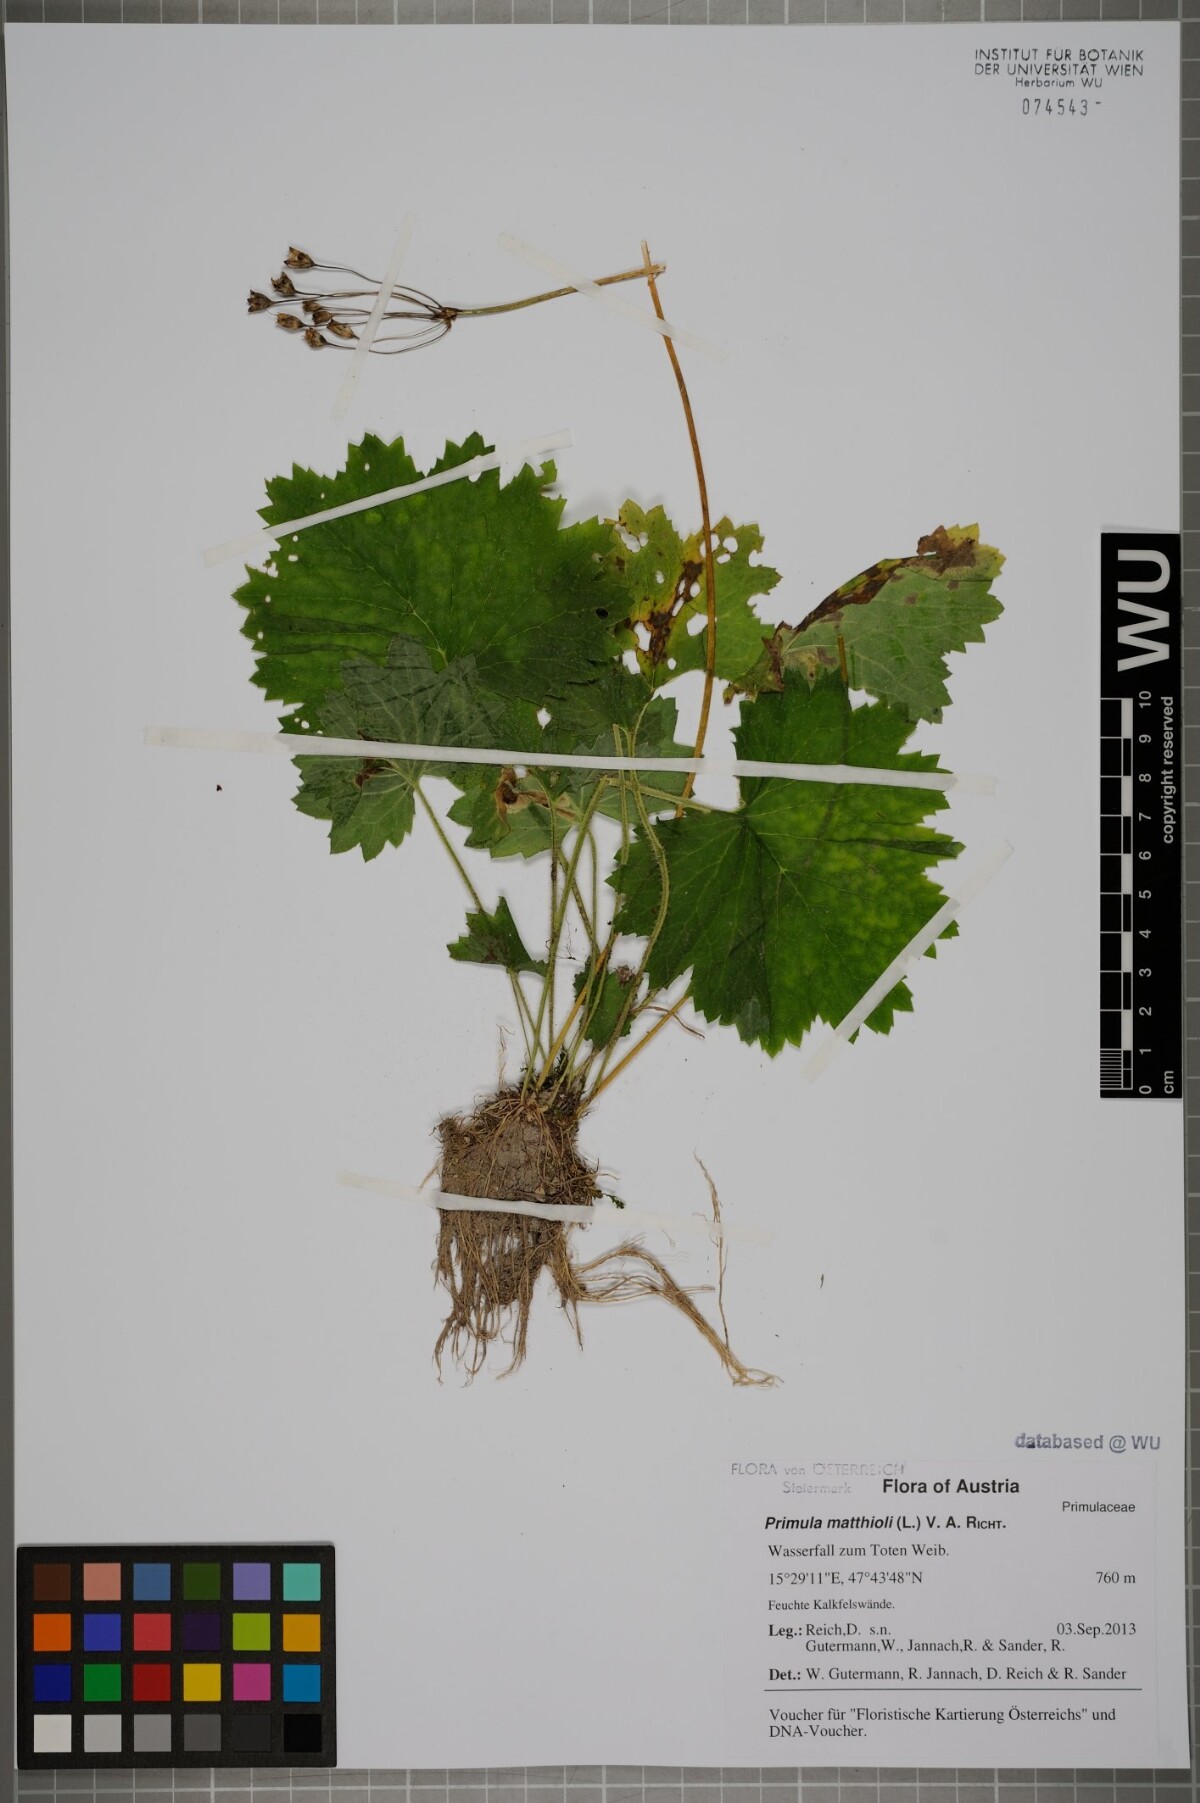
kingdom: Plantae
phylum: Tracheophyta
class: Magnoliopsida
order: Ericales
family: Primulaceae
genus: Primula
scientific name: Primula matthioli
